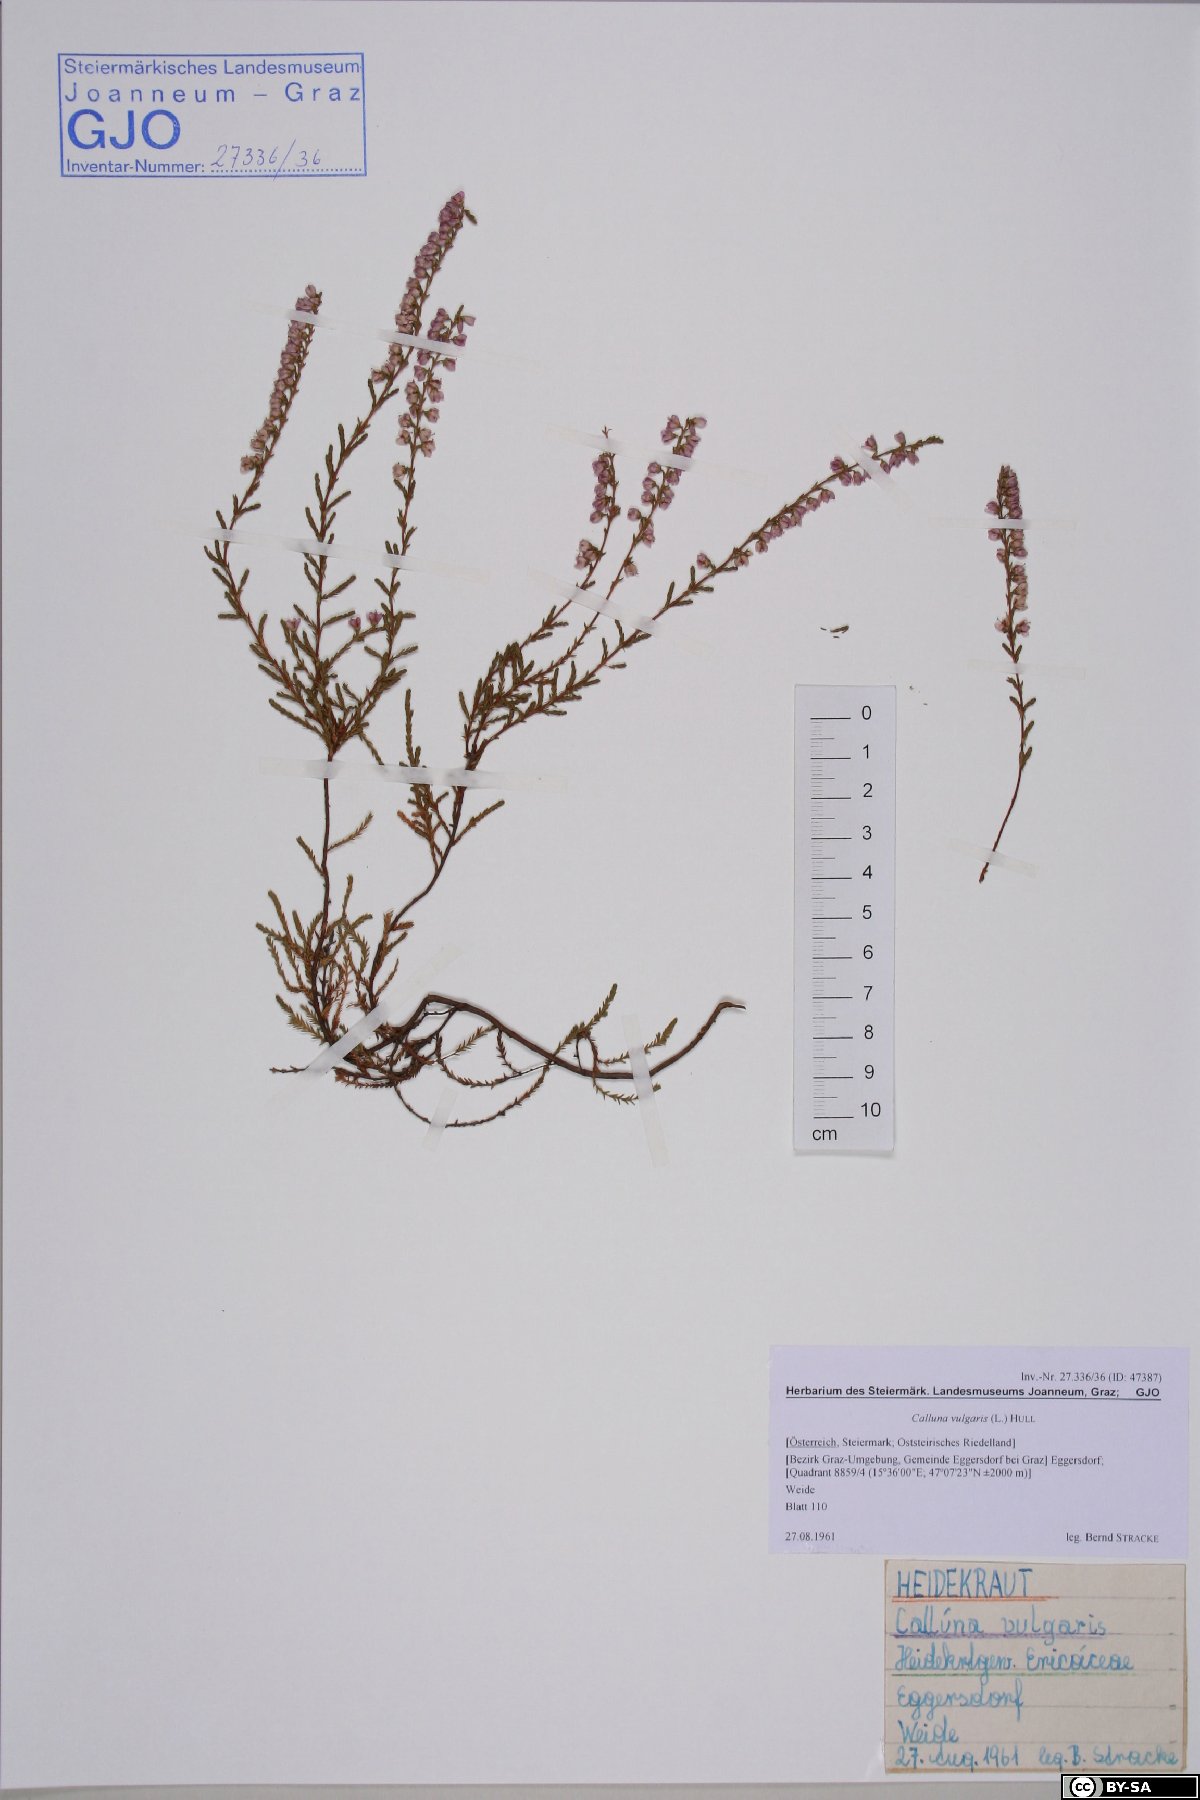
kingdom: Plantae
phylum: Tracheophyta
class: Magnoliopsida
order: Ericales
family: Ericaceae
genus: Calluna
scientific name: Calluna vulgaris
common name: Heather
